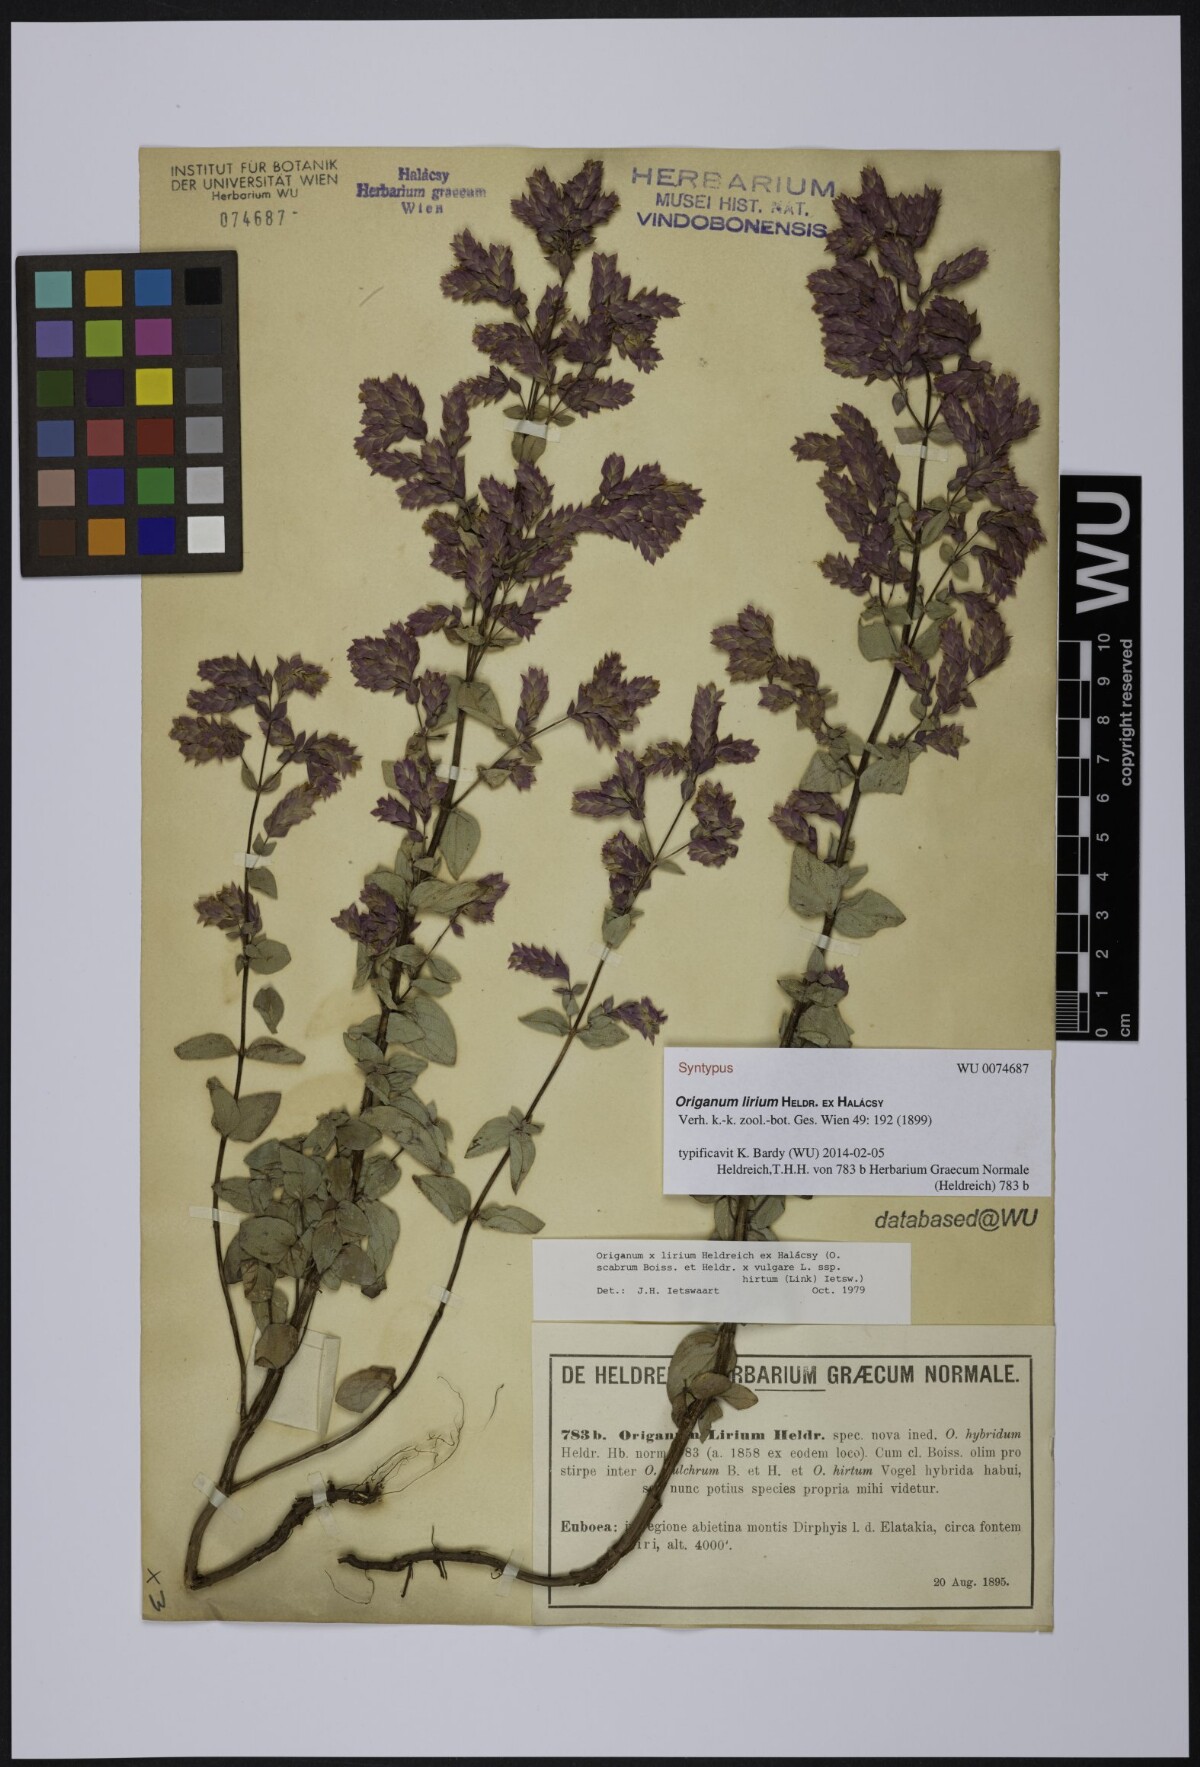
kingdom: Plantae
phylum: Tracheophyta
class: Magnoliopsida
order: Lamiales
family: Lamiaceae
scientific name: Lamiaceae
